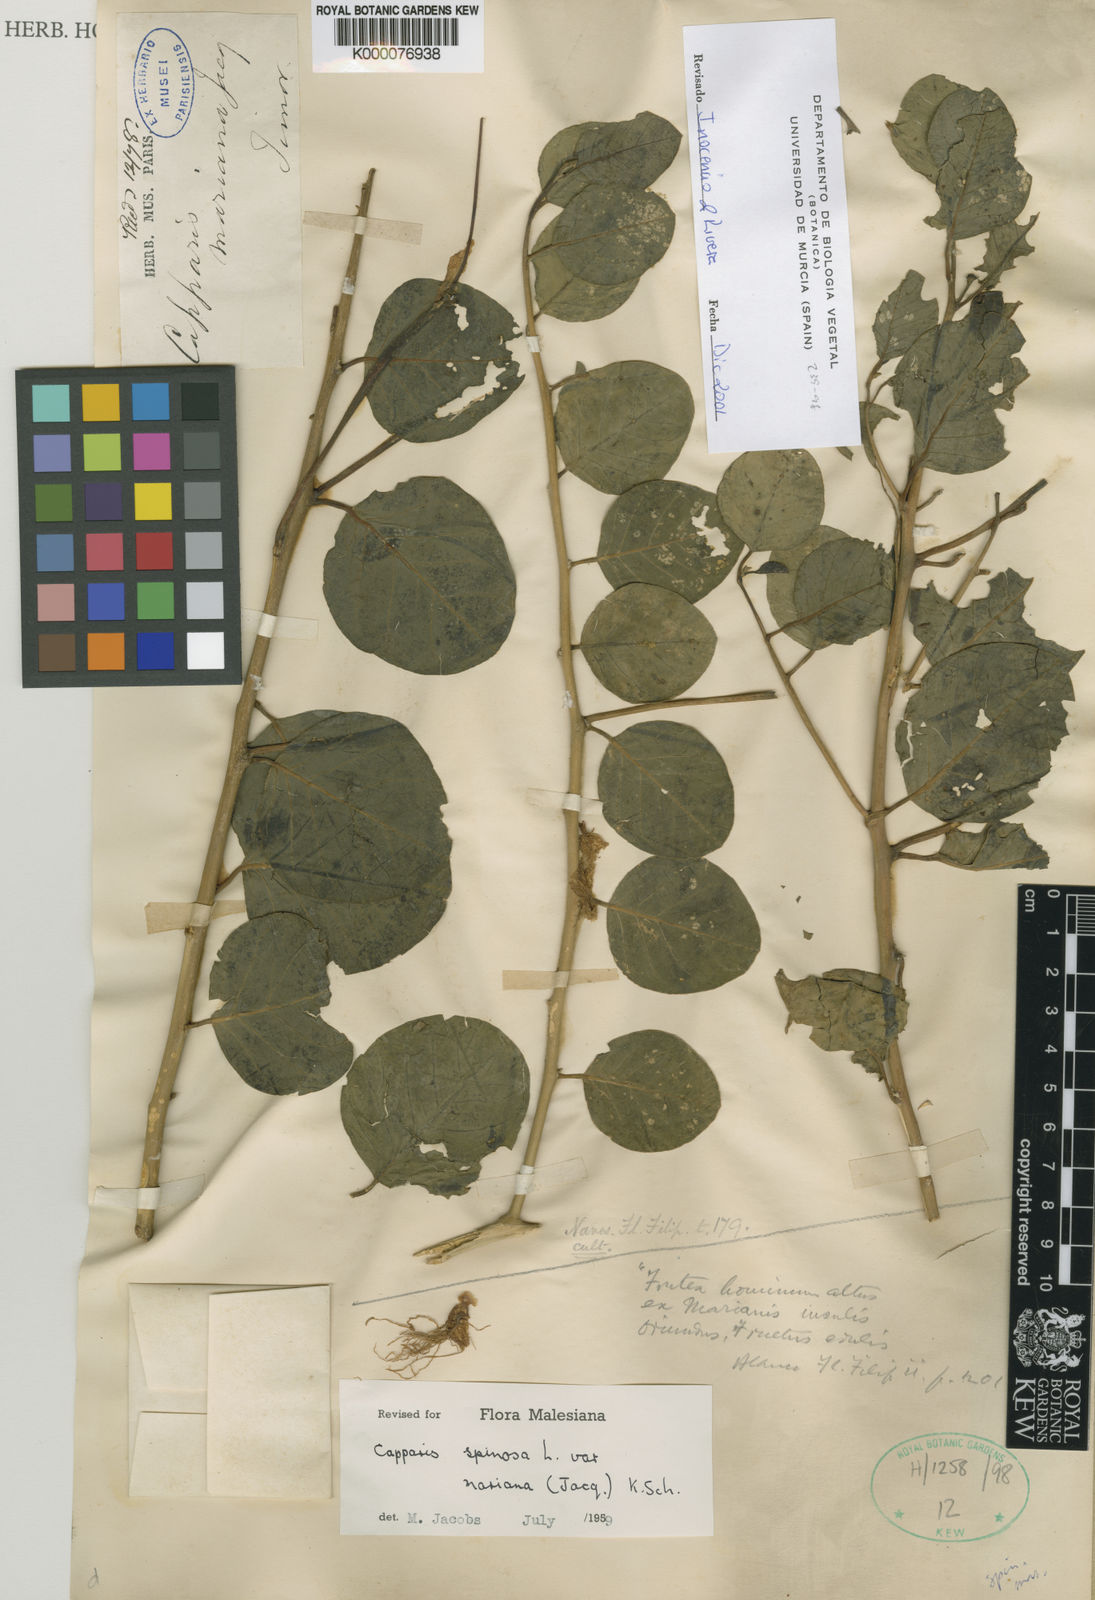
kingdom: Plantae
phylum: Tracheophyta
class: Magnoliopsida
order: Brassicales
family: Capparaceae
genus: Capparis
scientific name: Capparis spinosa
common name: Caper
